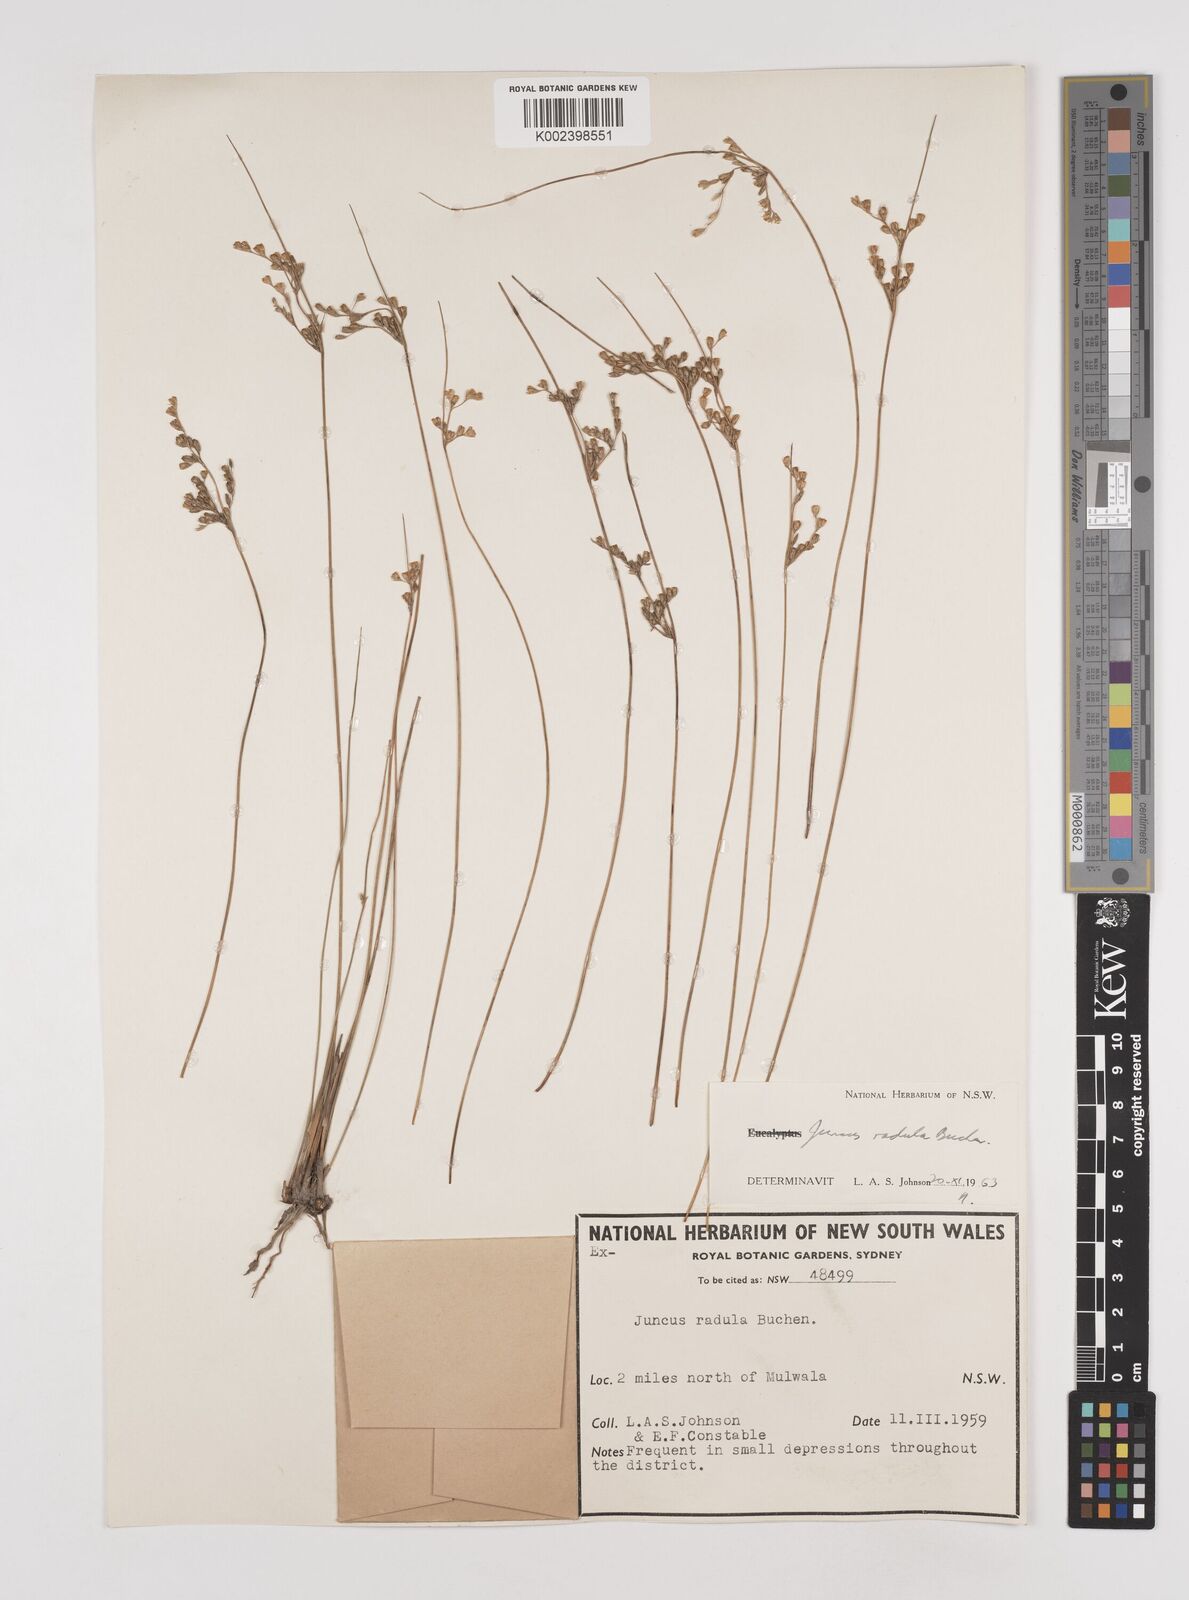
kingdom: Plantae
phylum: Tracheophyta
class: Liliopsida
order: Poales
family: Juncaceae
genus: Juncus
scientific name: Juncus radula
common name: Hoary rush
